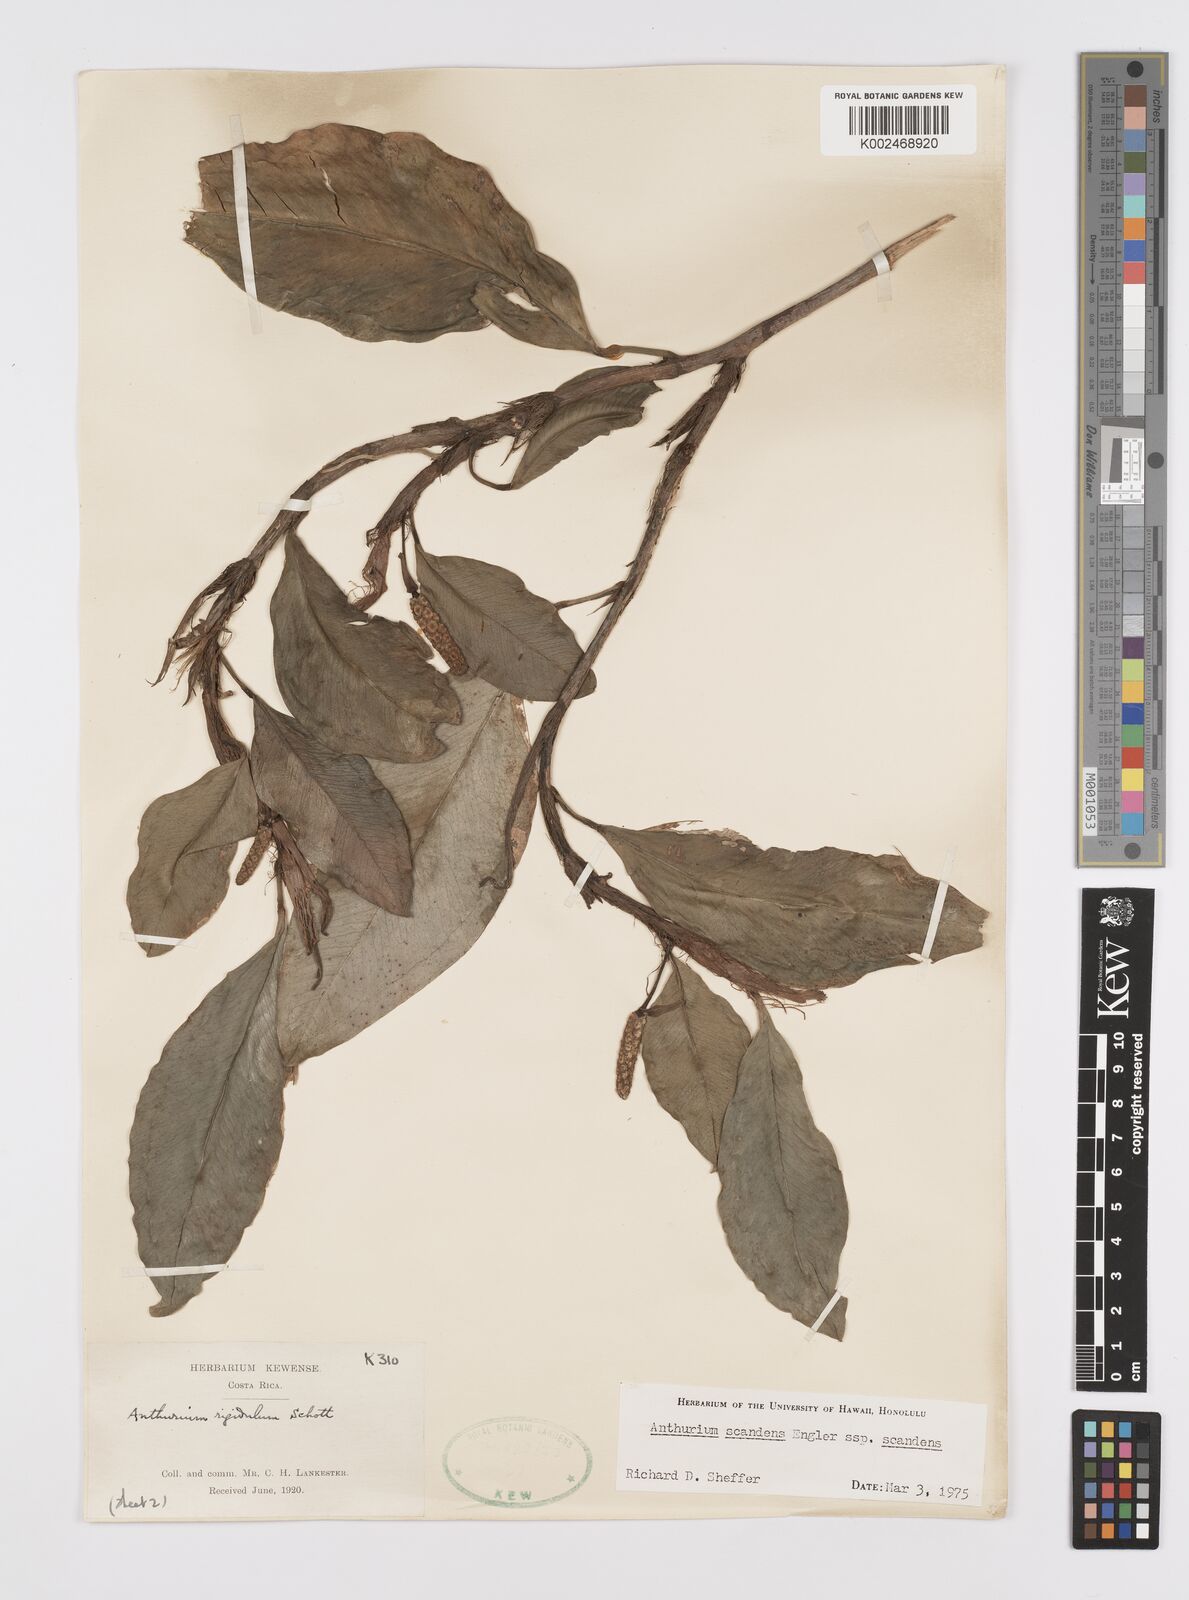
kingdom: Plantae
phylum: Tracheophyta
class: Liliopsida
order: Alismatales
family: Araceae
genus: Anthurium
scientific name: Anthurium scandens
